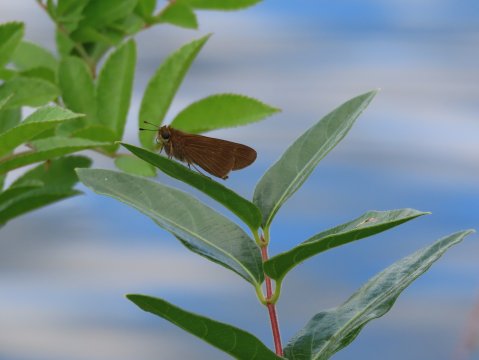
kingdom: Animalia
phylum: Arthropoda
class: Insecta
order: Lepidoptera
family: Hesperiidae
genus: Panoquina
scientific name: Panoquina ocola
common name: Ocola Skipper
